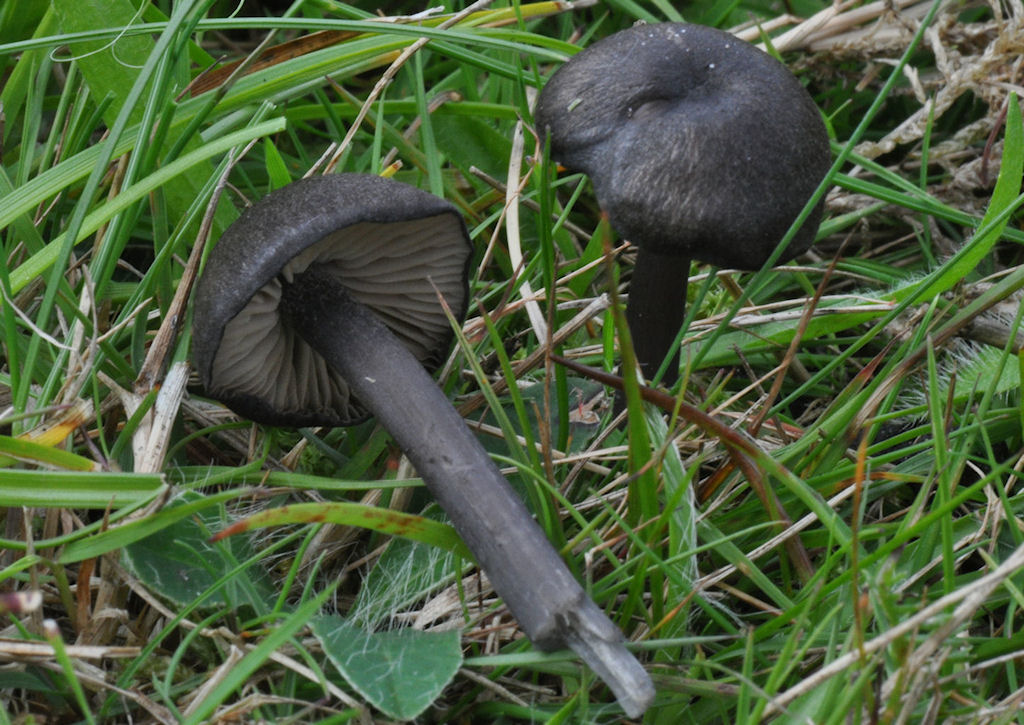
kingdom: Fungi
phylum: Basidiomycota
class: Agaricomycetes
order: Agaricales
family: Entolomataceae
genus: Entoloma
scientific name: Entoloma atrocoeruleum
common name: sortblå rødblad
